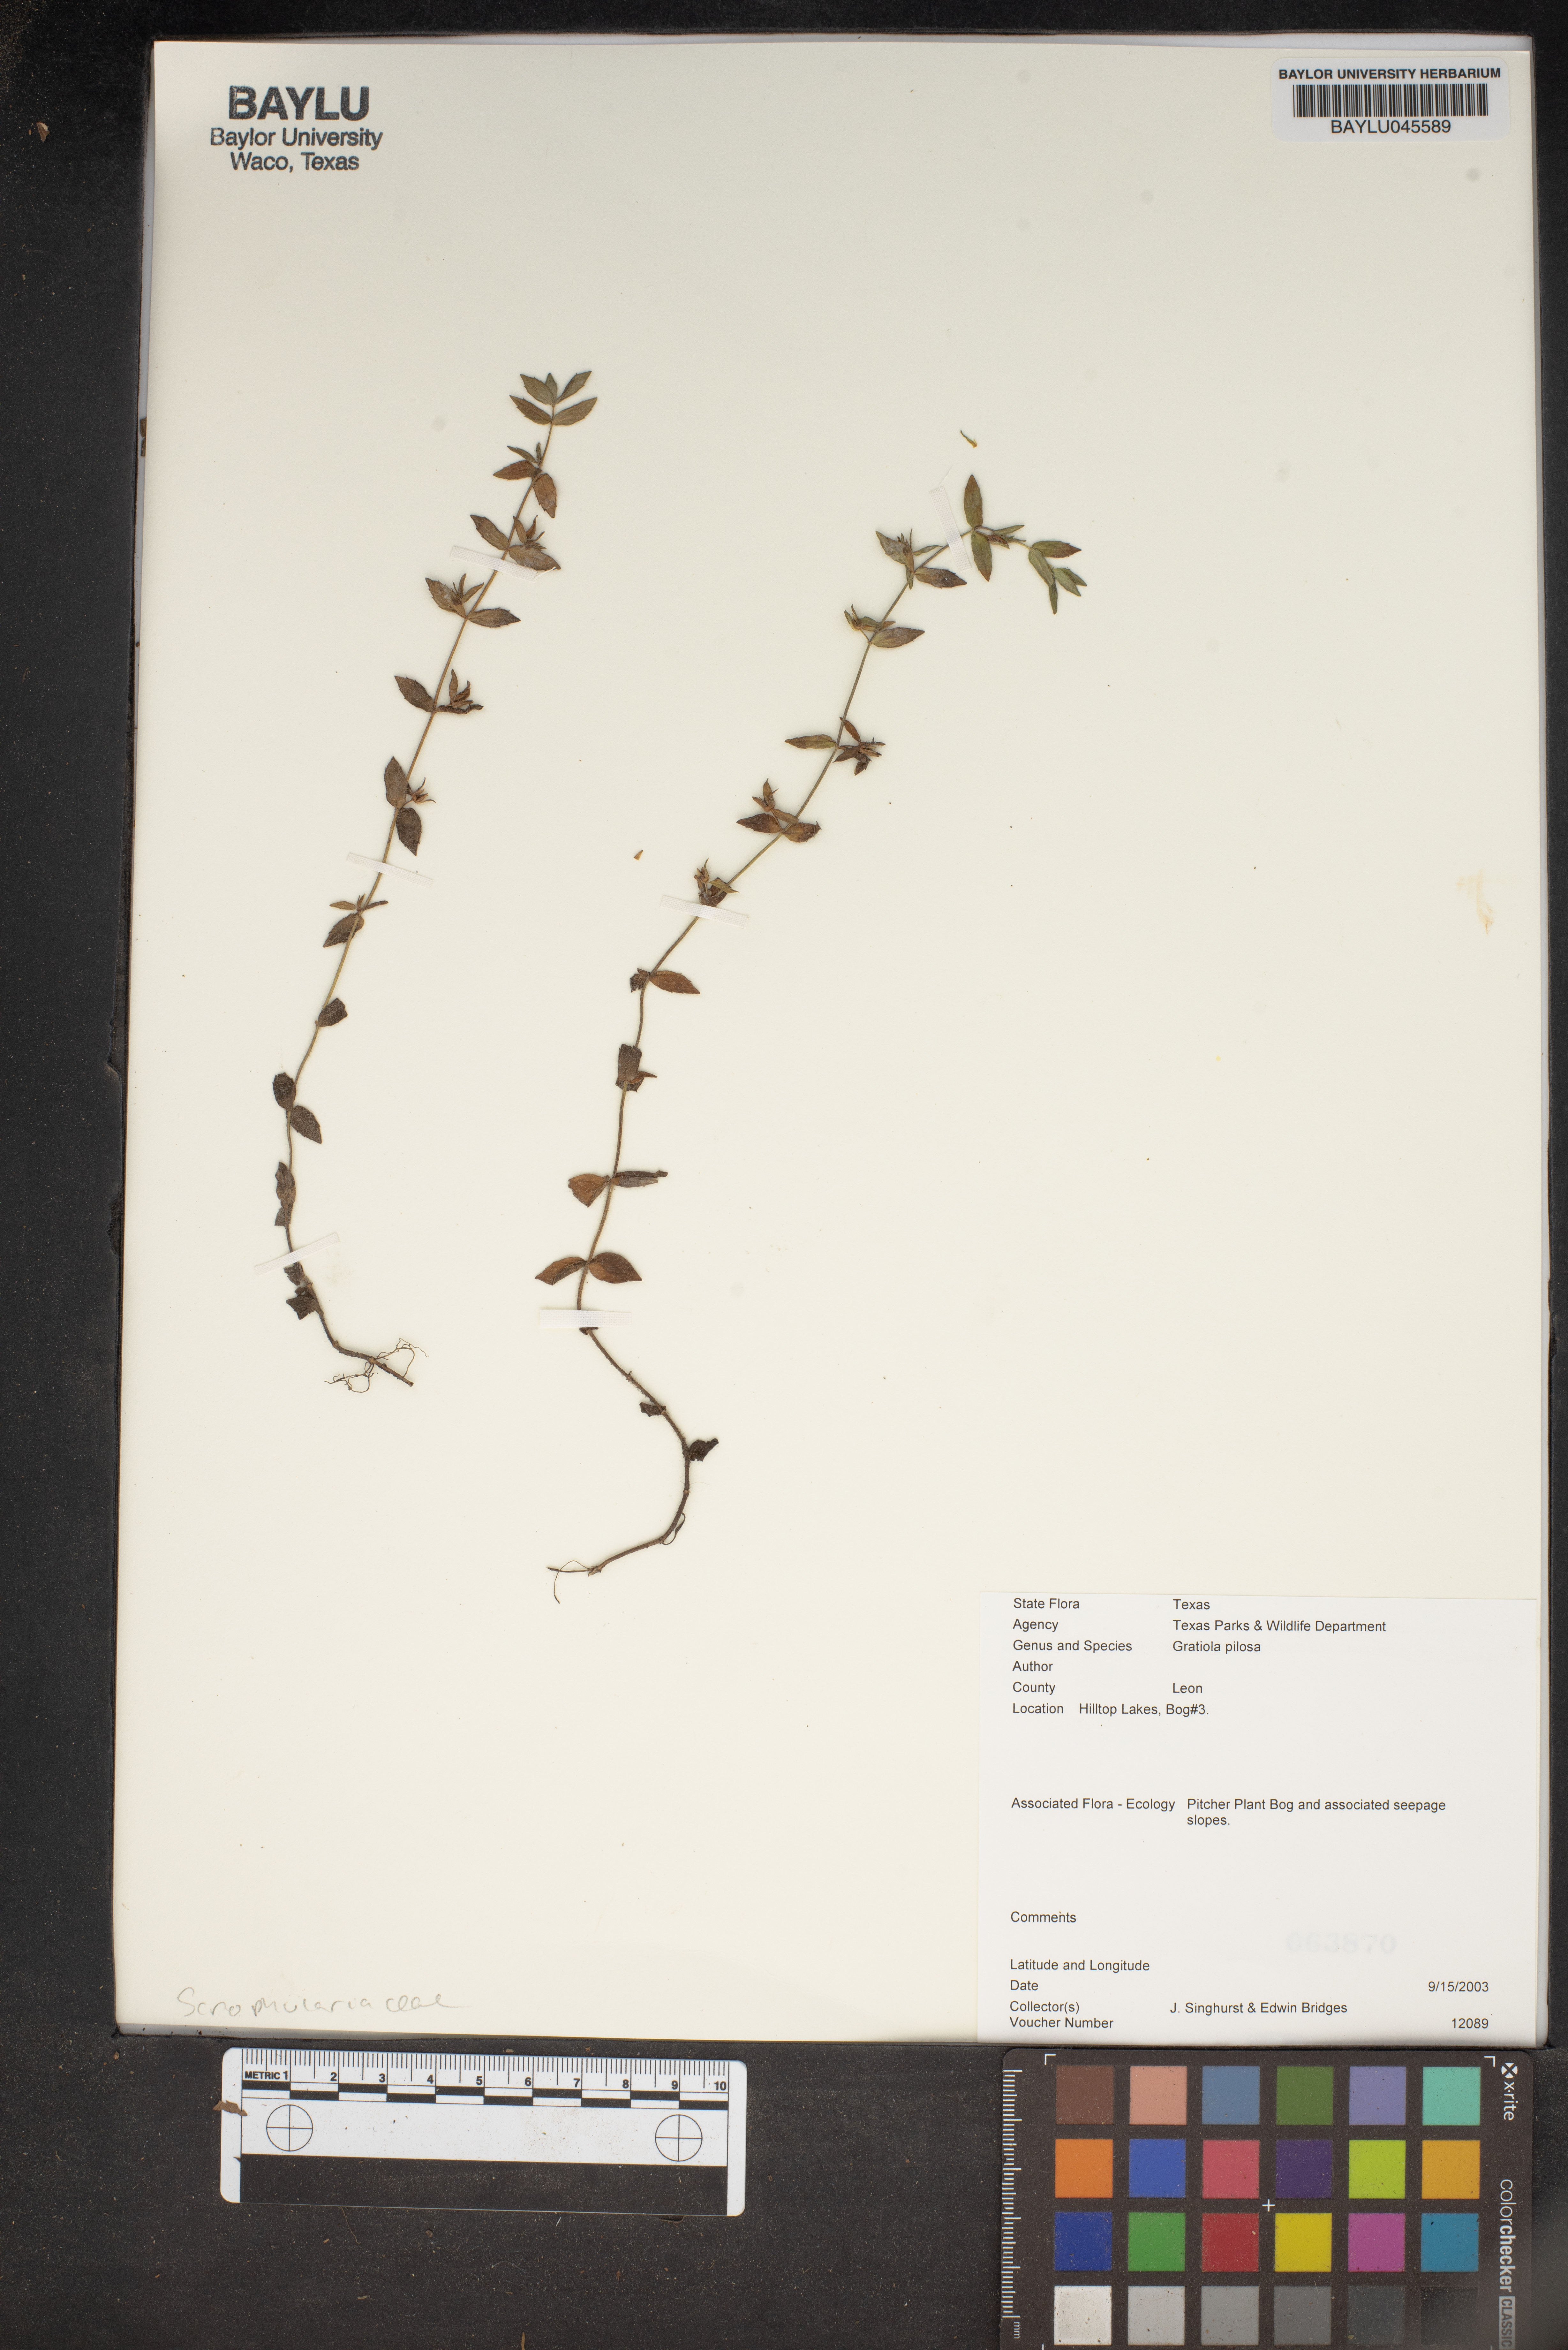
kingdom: Plantae
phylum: Tracheophyta
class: Magnoliopsida
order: Lamiales
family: Plantaginaceae
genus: Gratiola
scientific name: Gratiola pilosa
